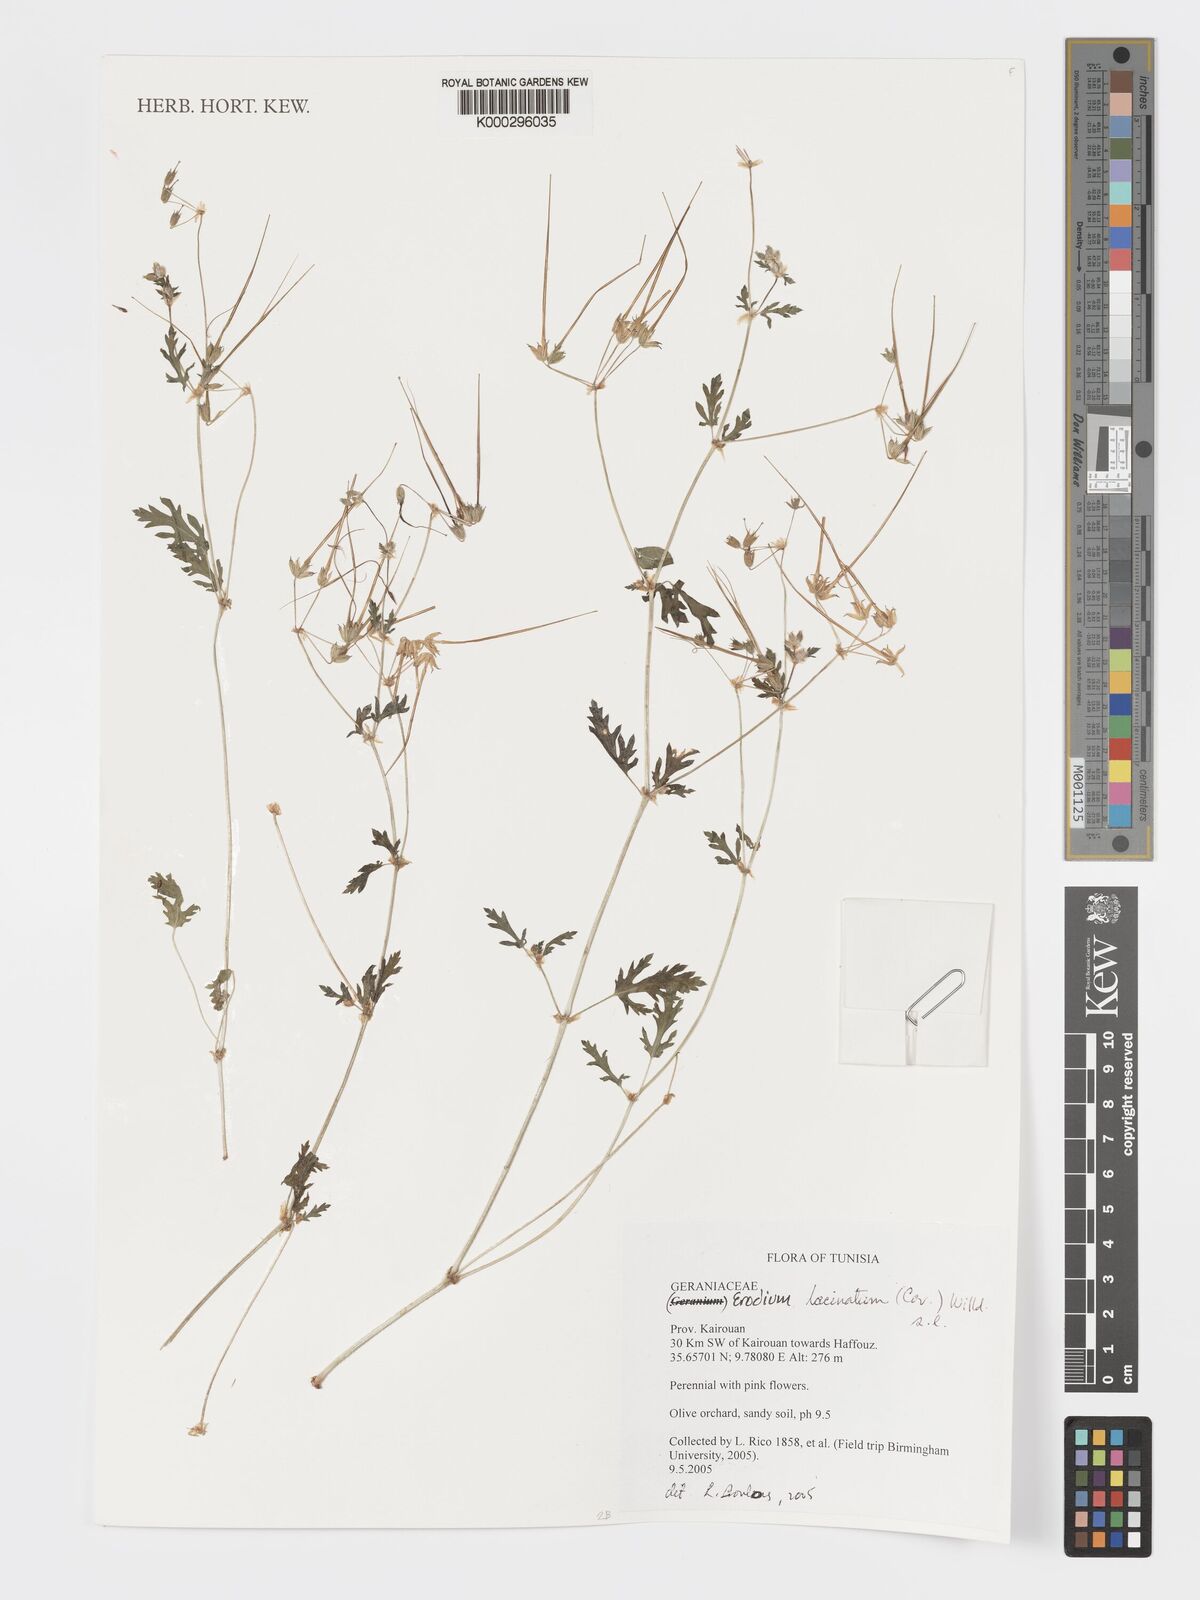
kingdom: Plantae
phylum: Tracheophyta
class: Magnoliopsida
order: Geraniales
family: Geraniaceae
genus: Erodium
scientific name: Erodium
